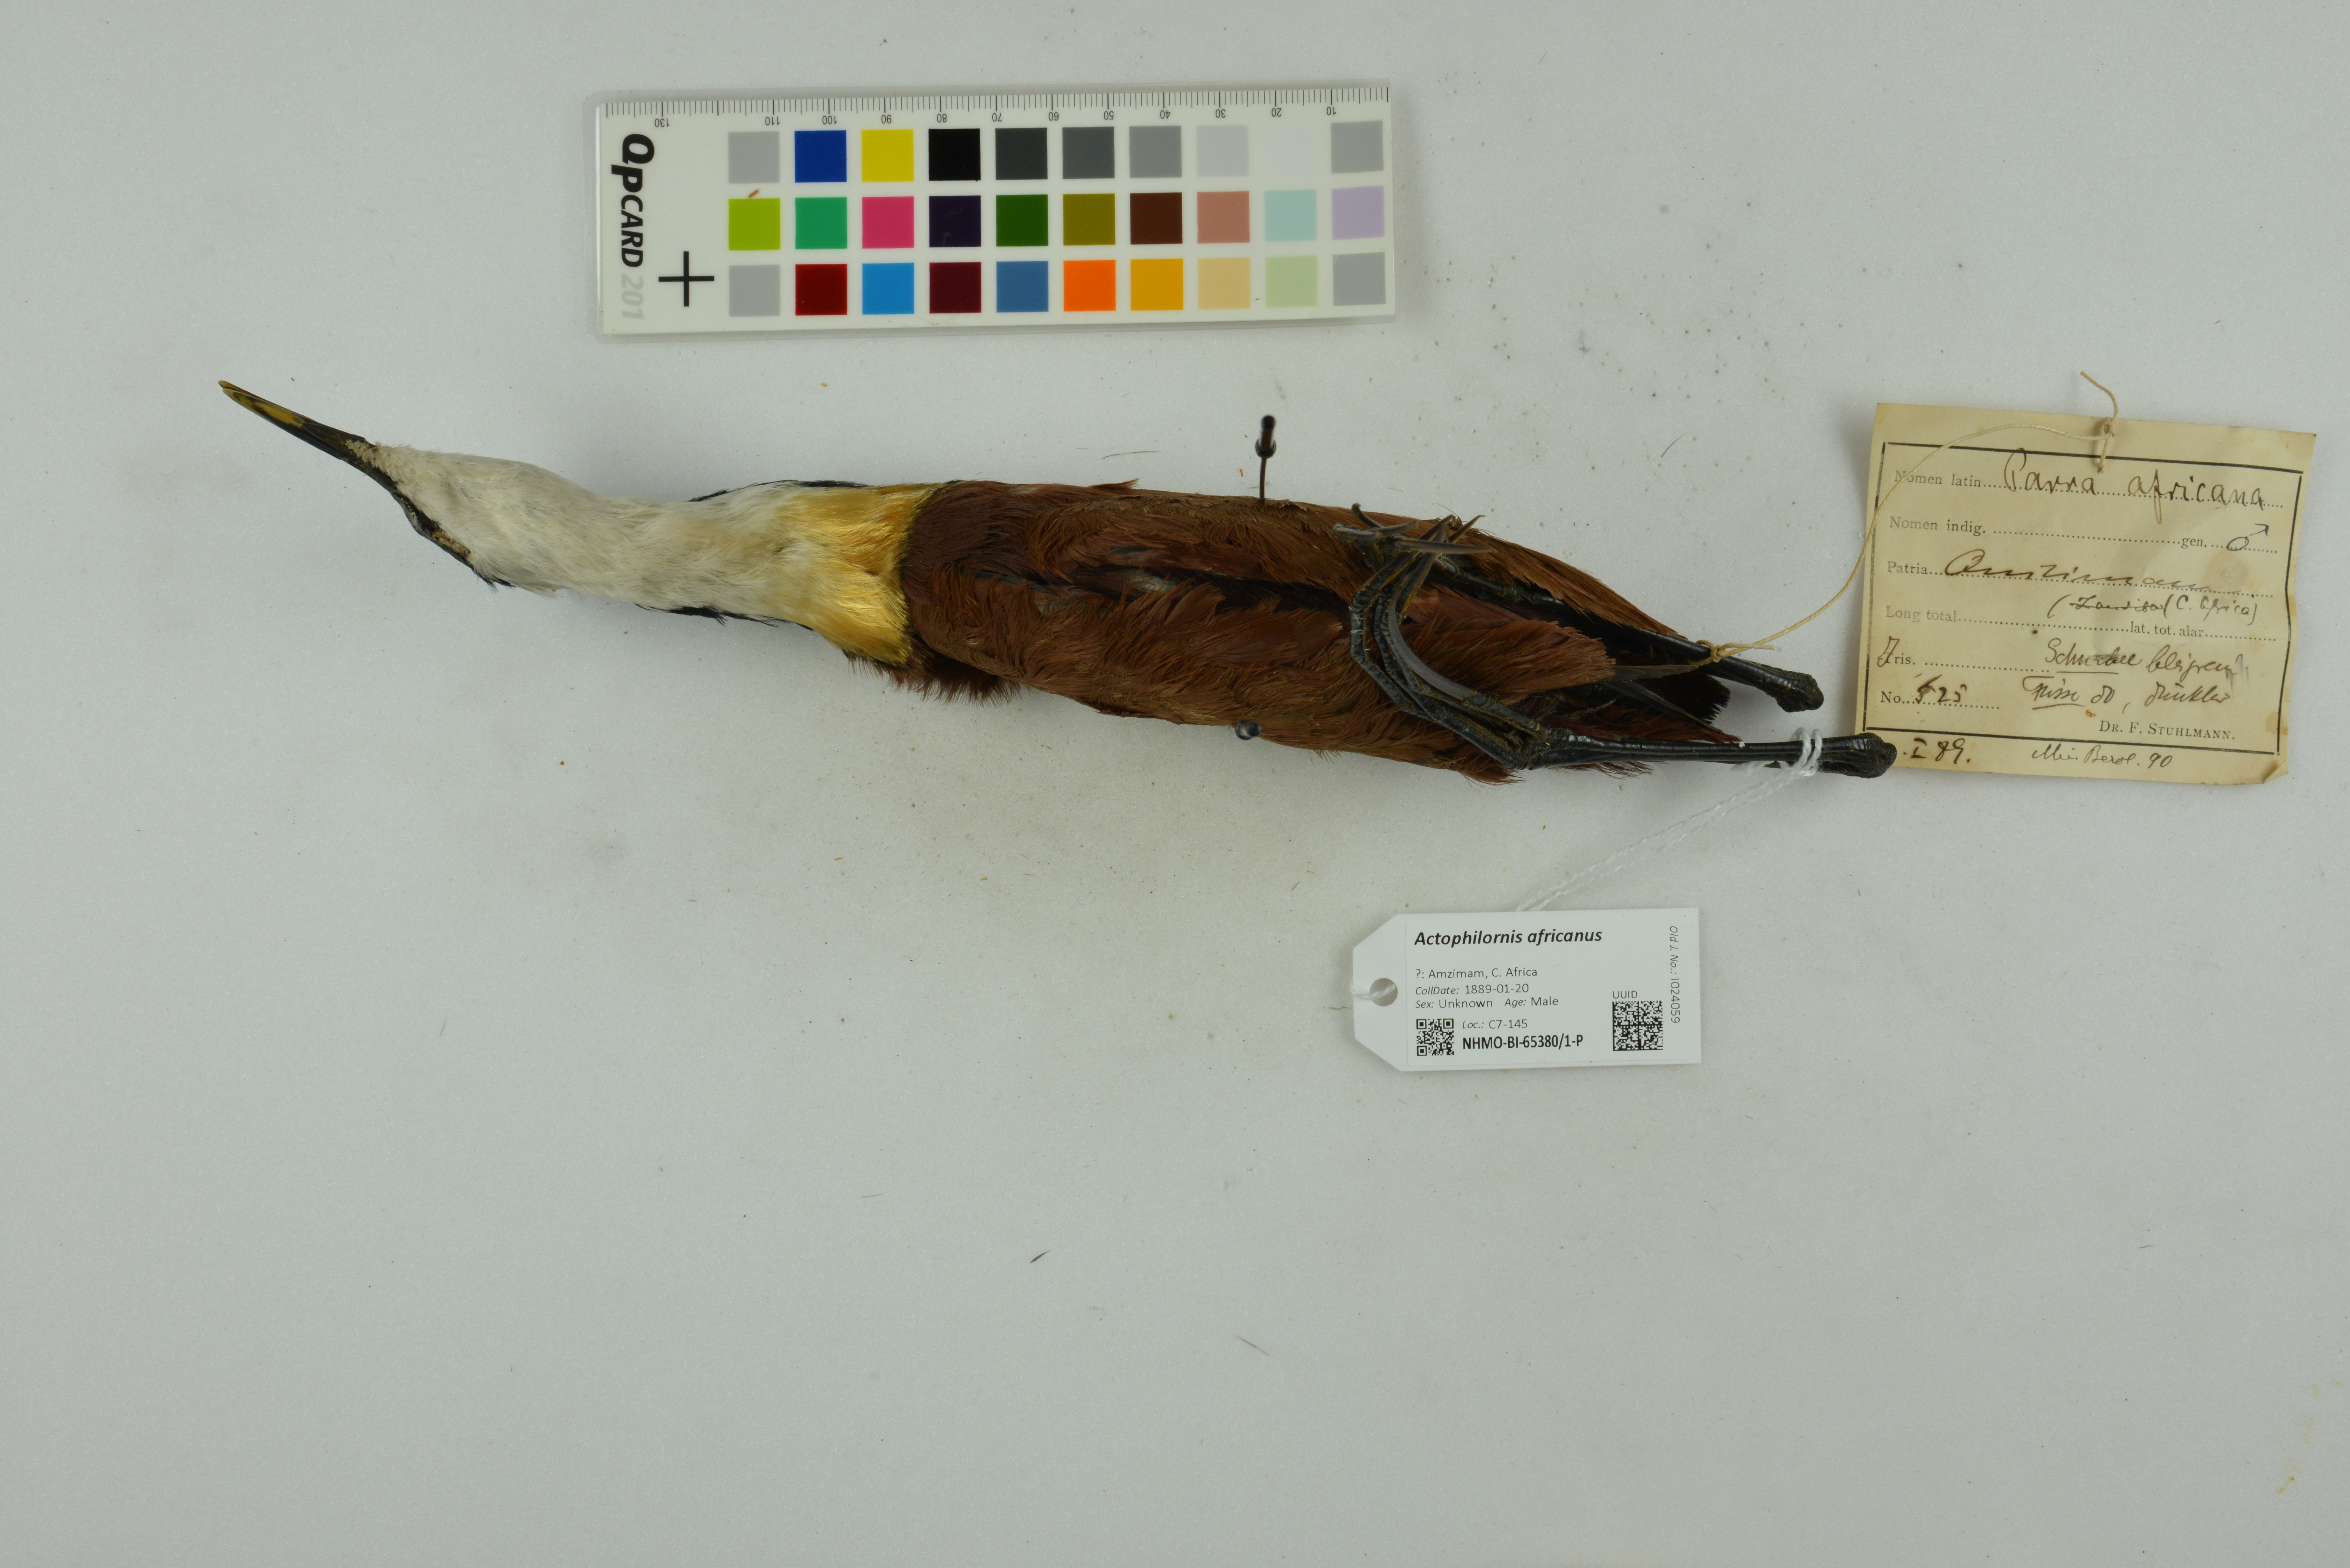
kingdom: Animalia
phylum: Chordata
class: Aves
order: Charadriiformes
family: Jacanidae
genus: Actophilornis
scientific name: Actophilornis africanus
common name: African jacana
